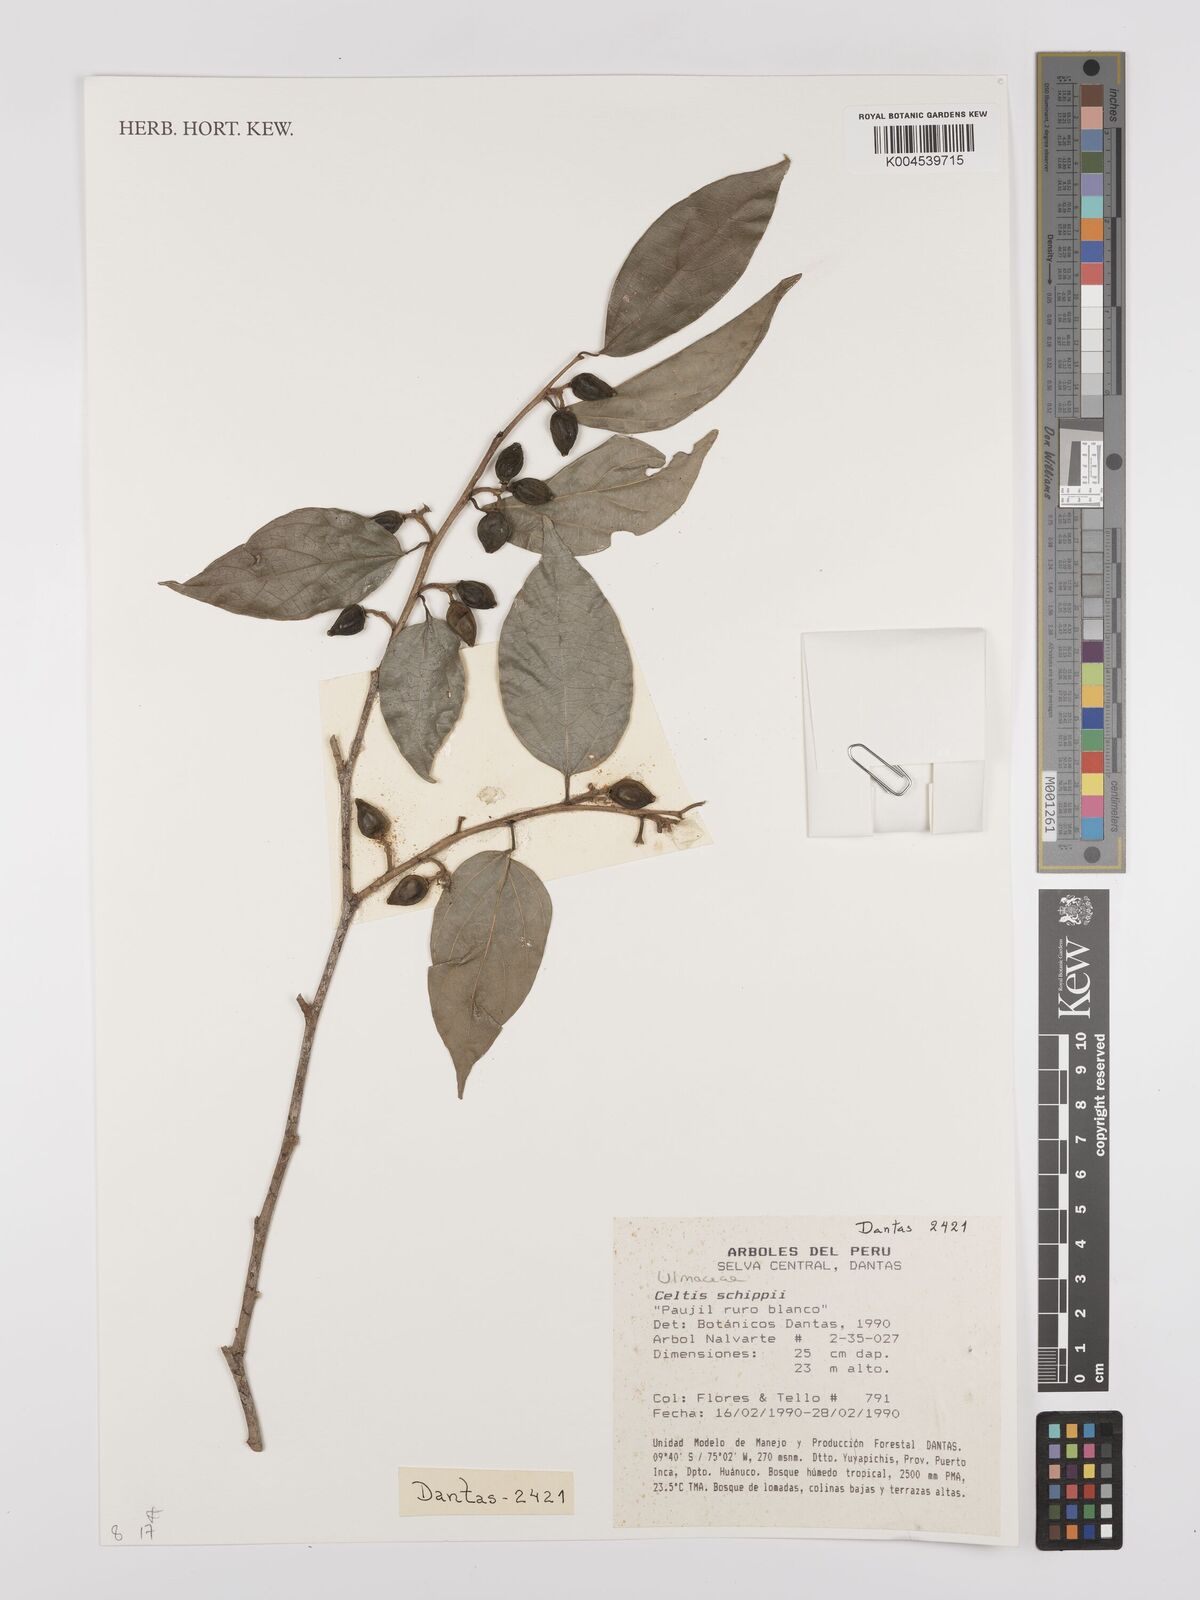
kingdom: Plantae
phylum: Tracheophyta
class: Magnoliopsida
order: Rosales
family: Cannabaceae
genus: Celtis
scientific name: Celtis schippii
